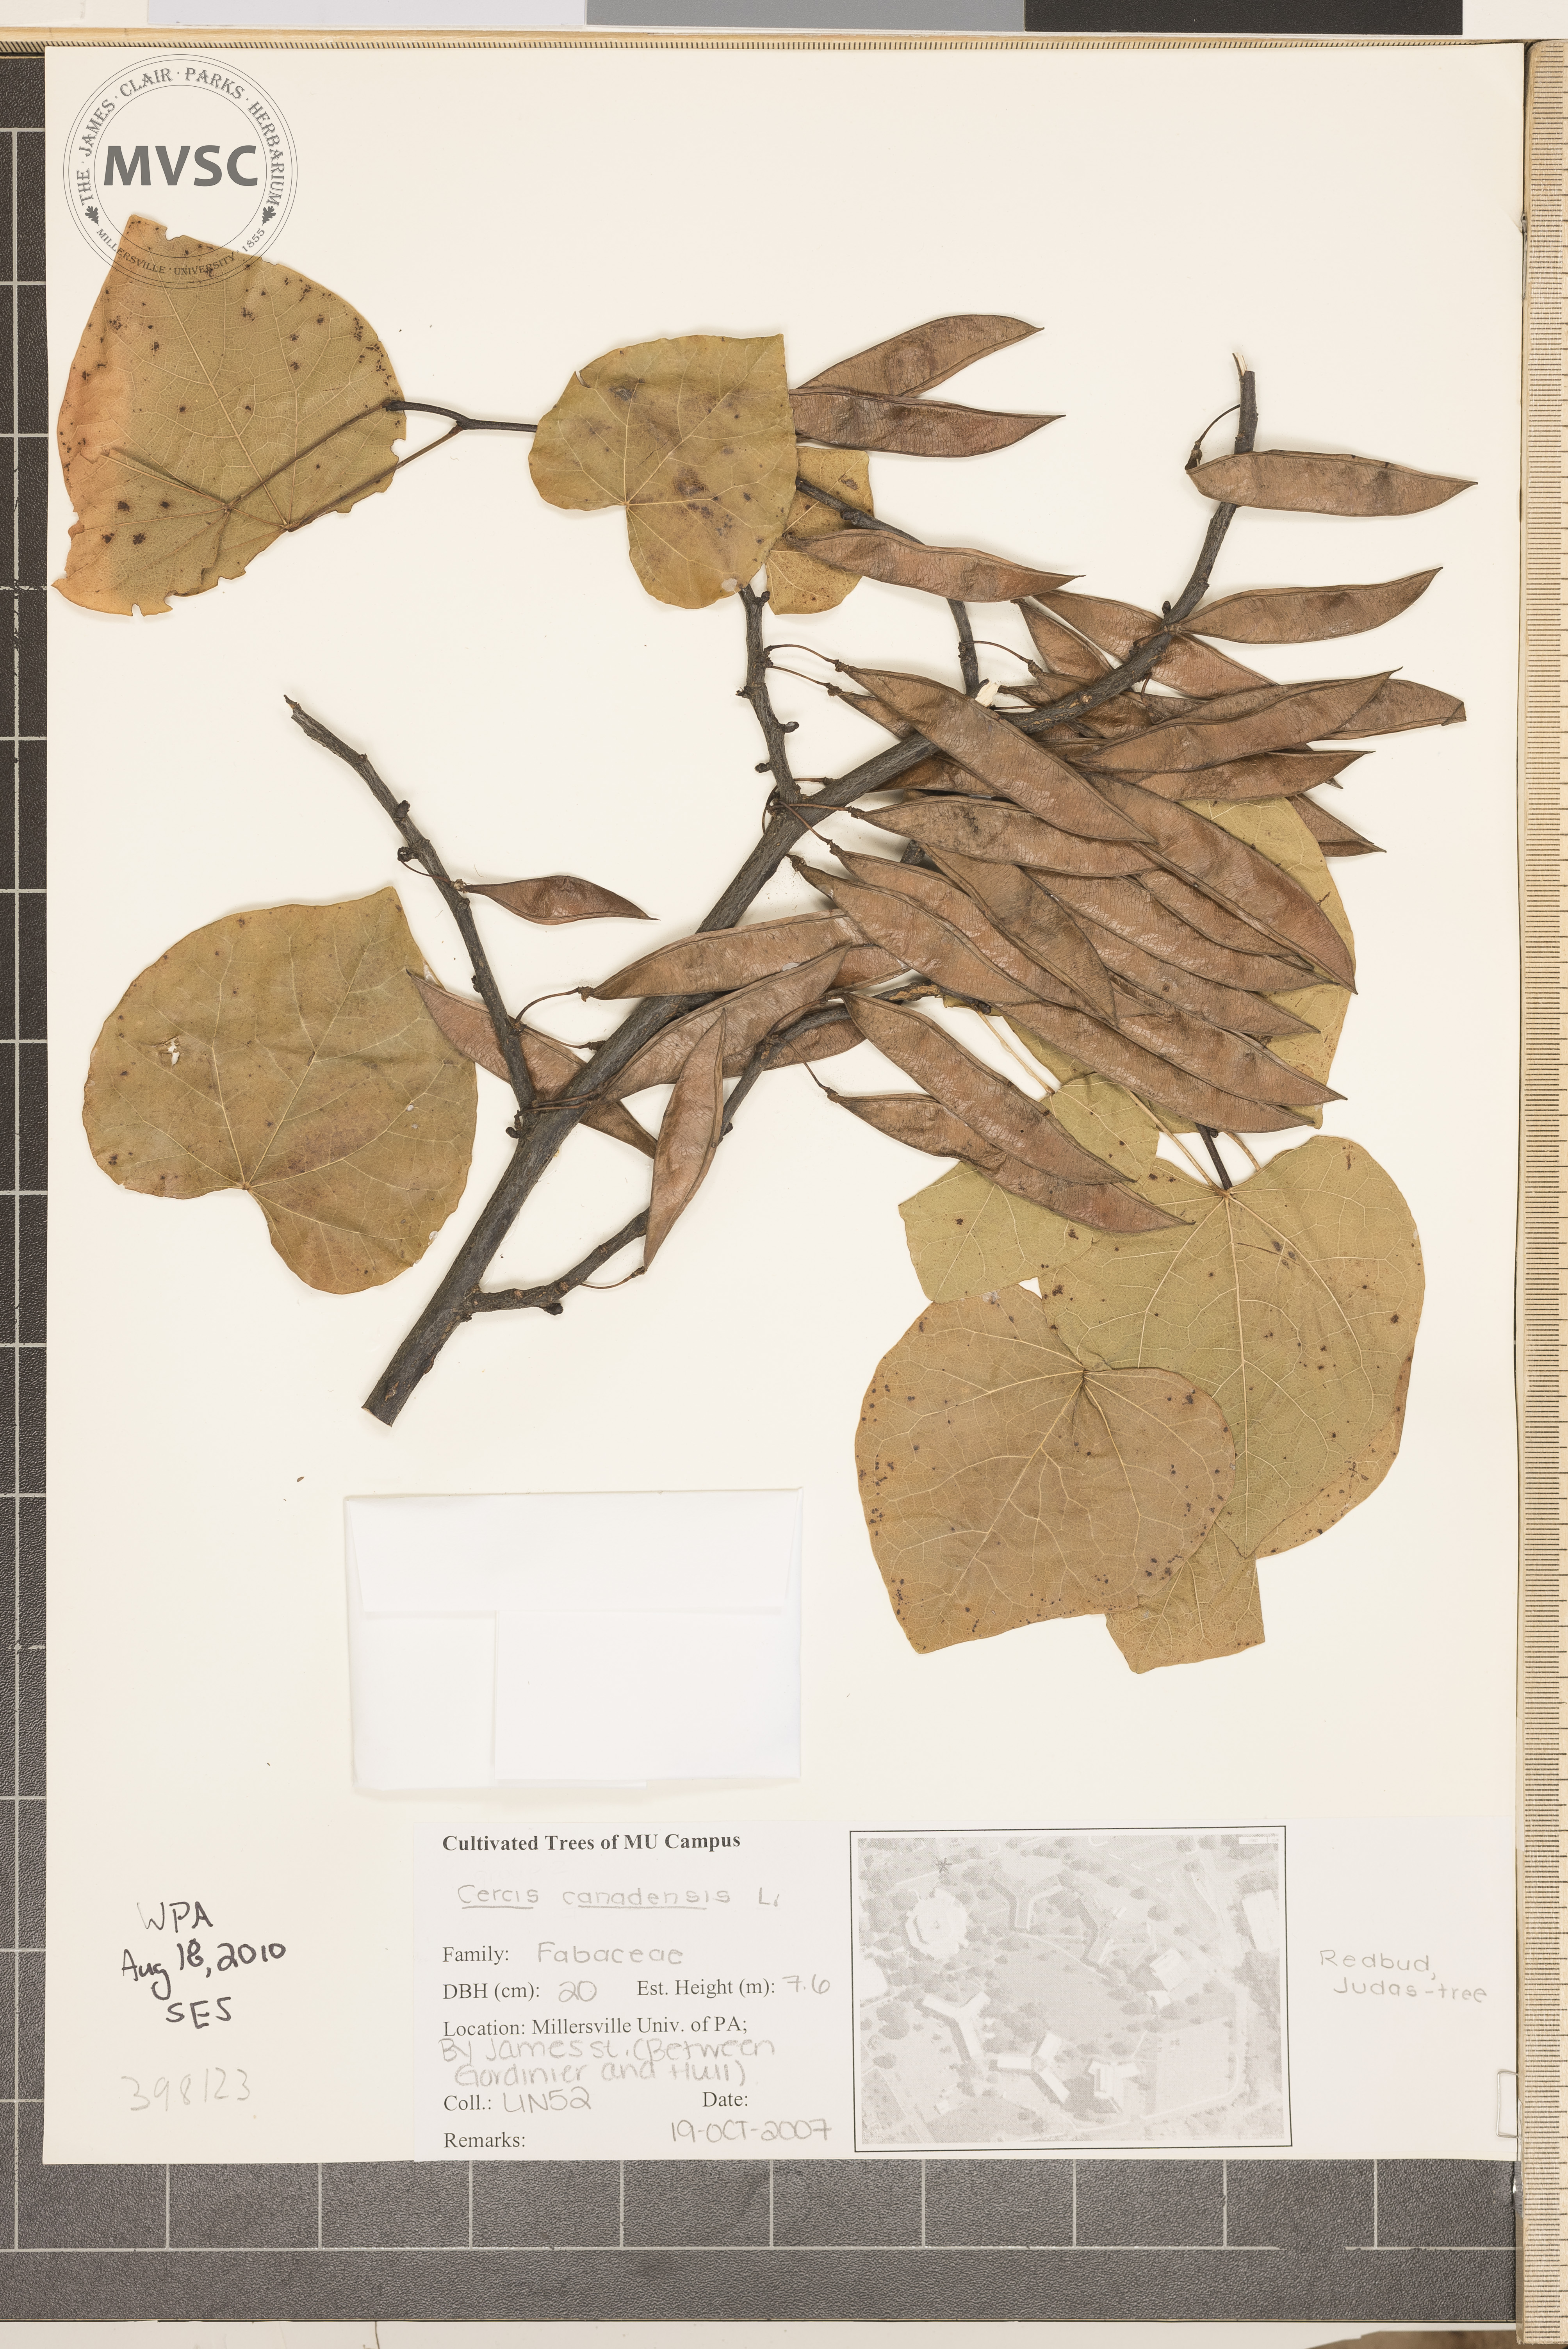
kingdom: Plantae
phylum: Tracheophyta
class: Magnoliopsida
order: Fabales
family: Fabaceae
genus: Cercis
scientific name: Cercis canadensis
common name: Redbud
